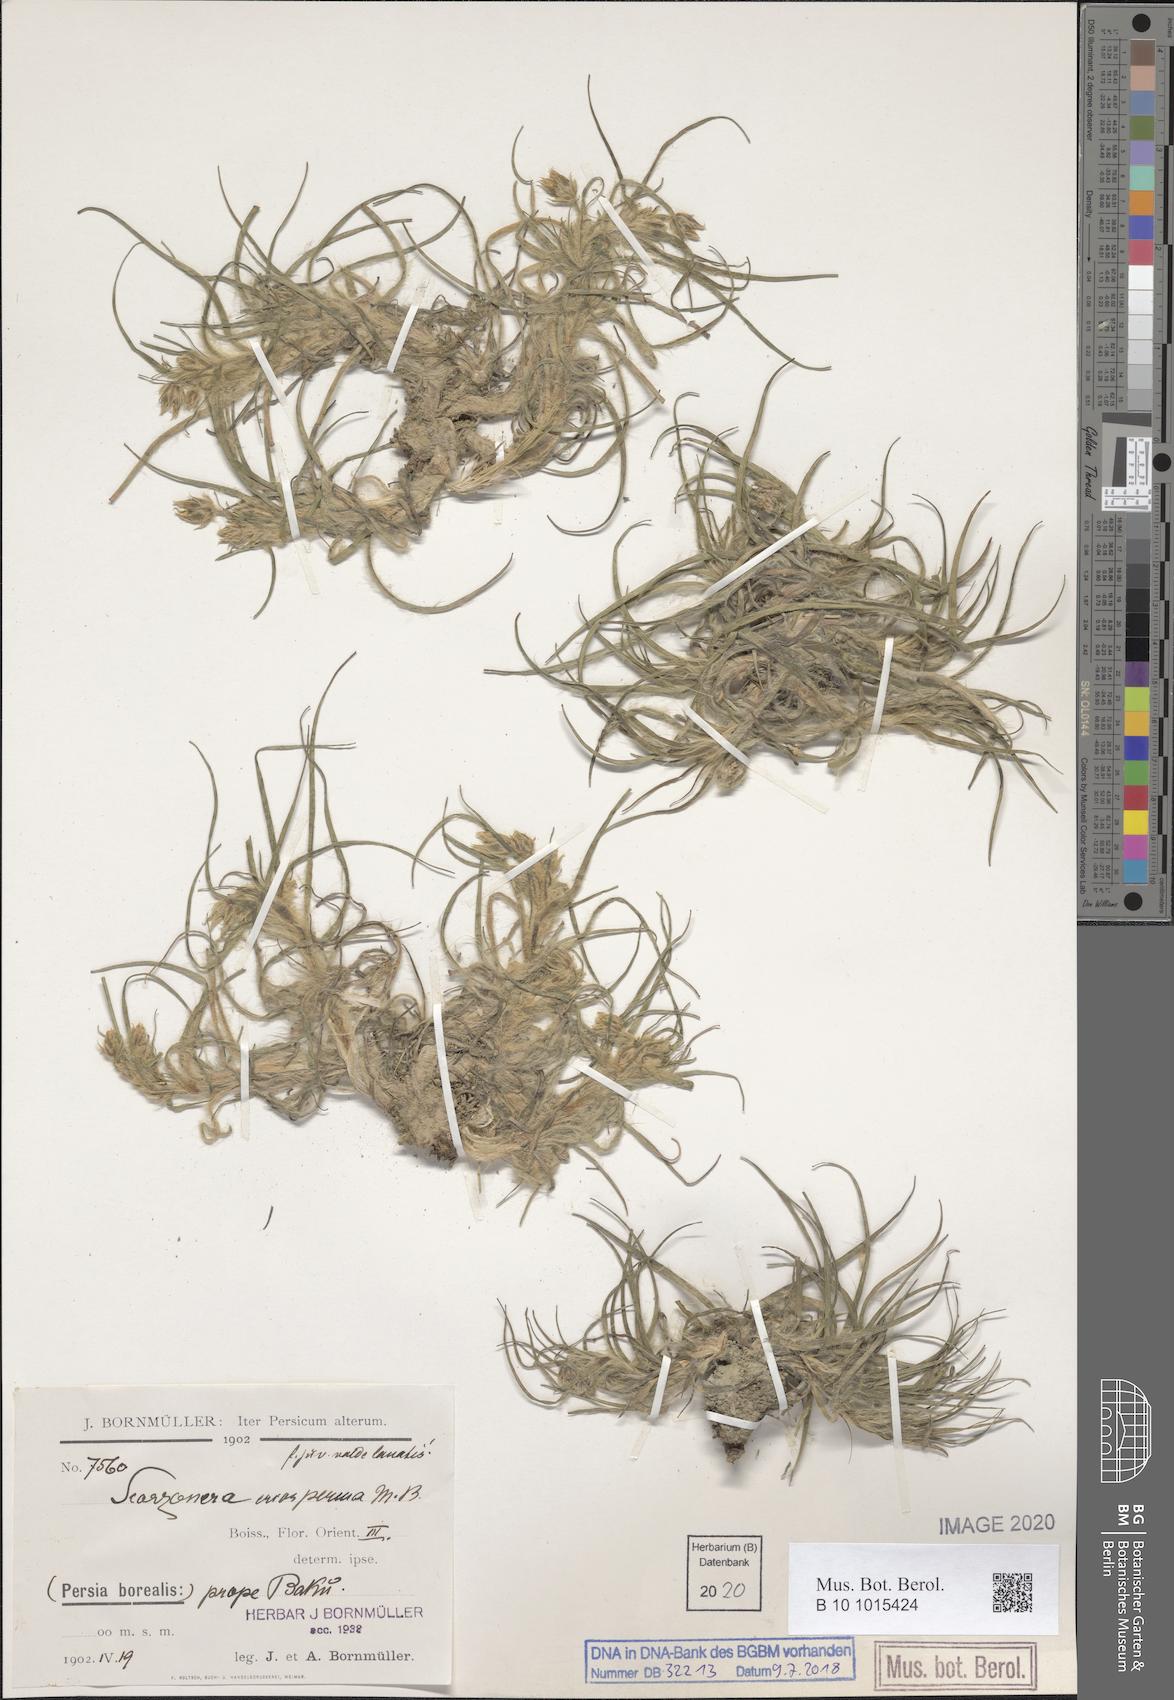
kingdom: Plantae
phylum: Tracheophyta
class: Magnoliopsida
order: Asterales
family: Asteraceae
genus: Gelasia
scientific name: Gelasia biebersteinii
